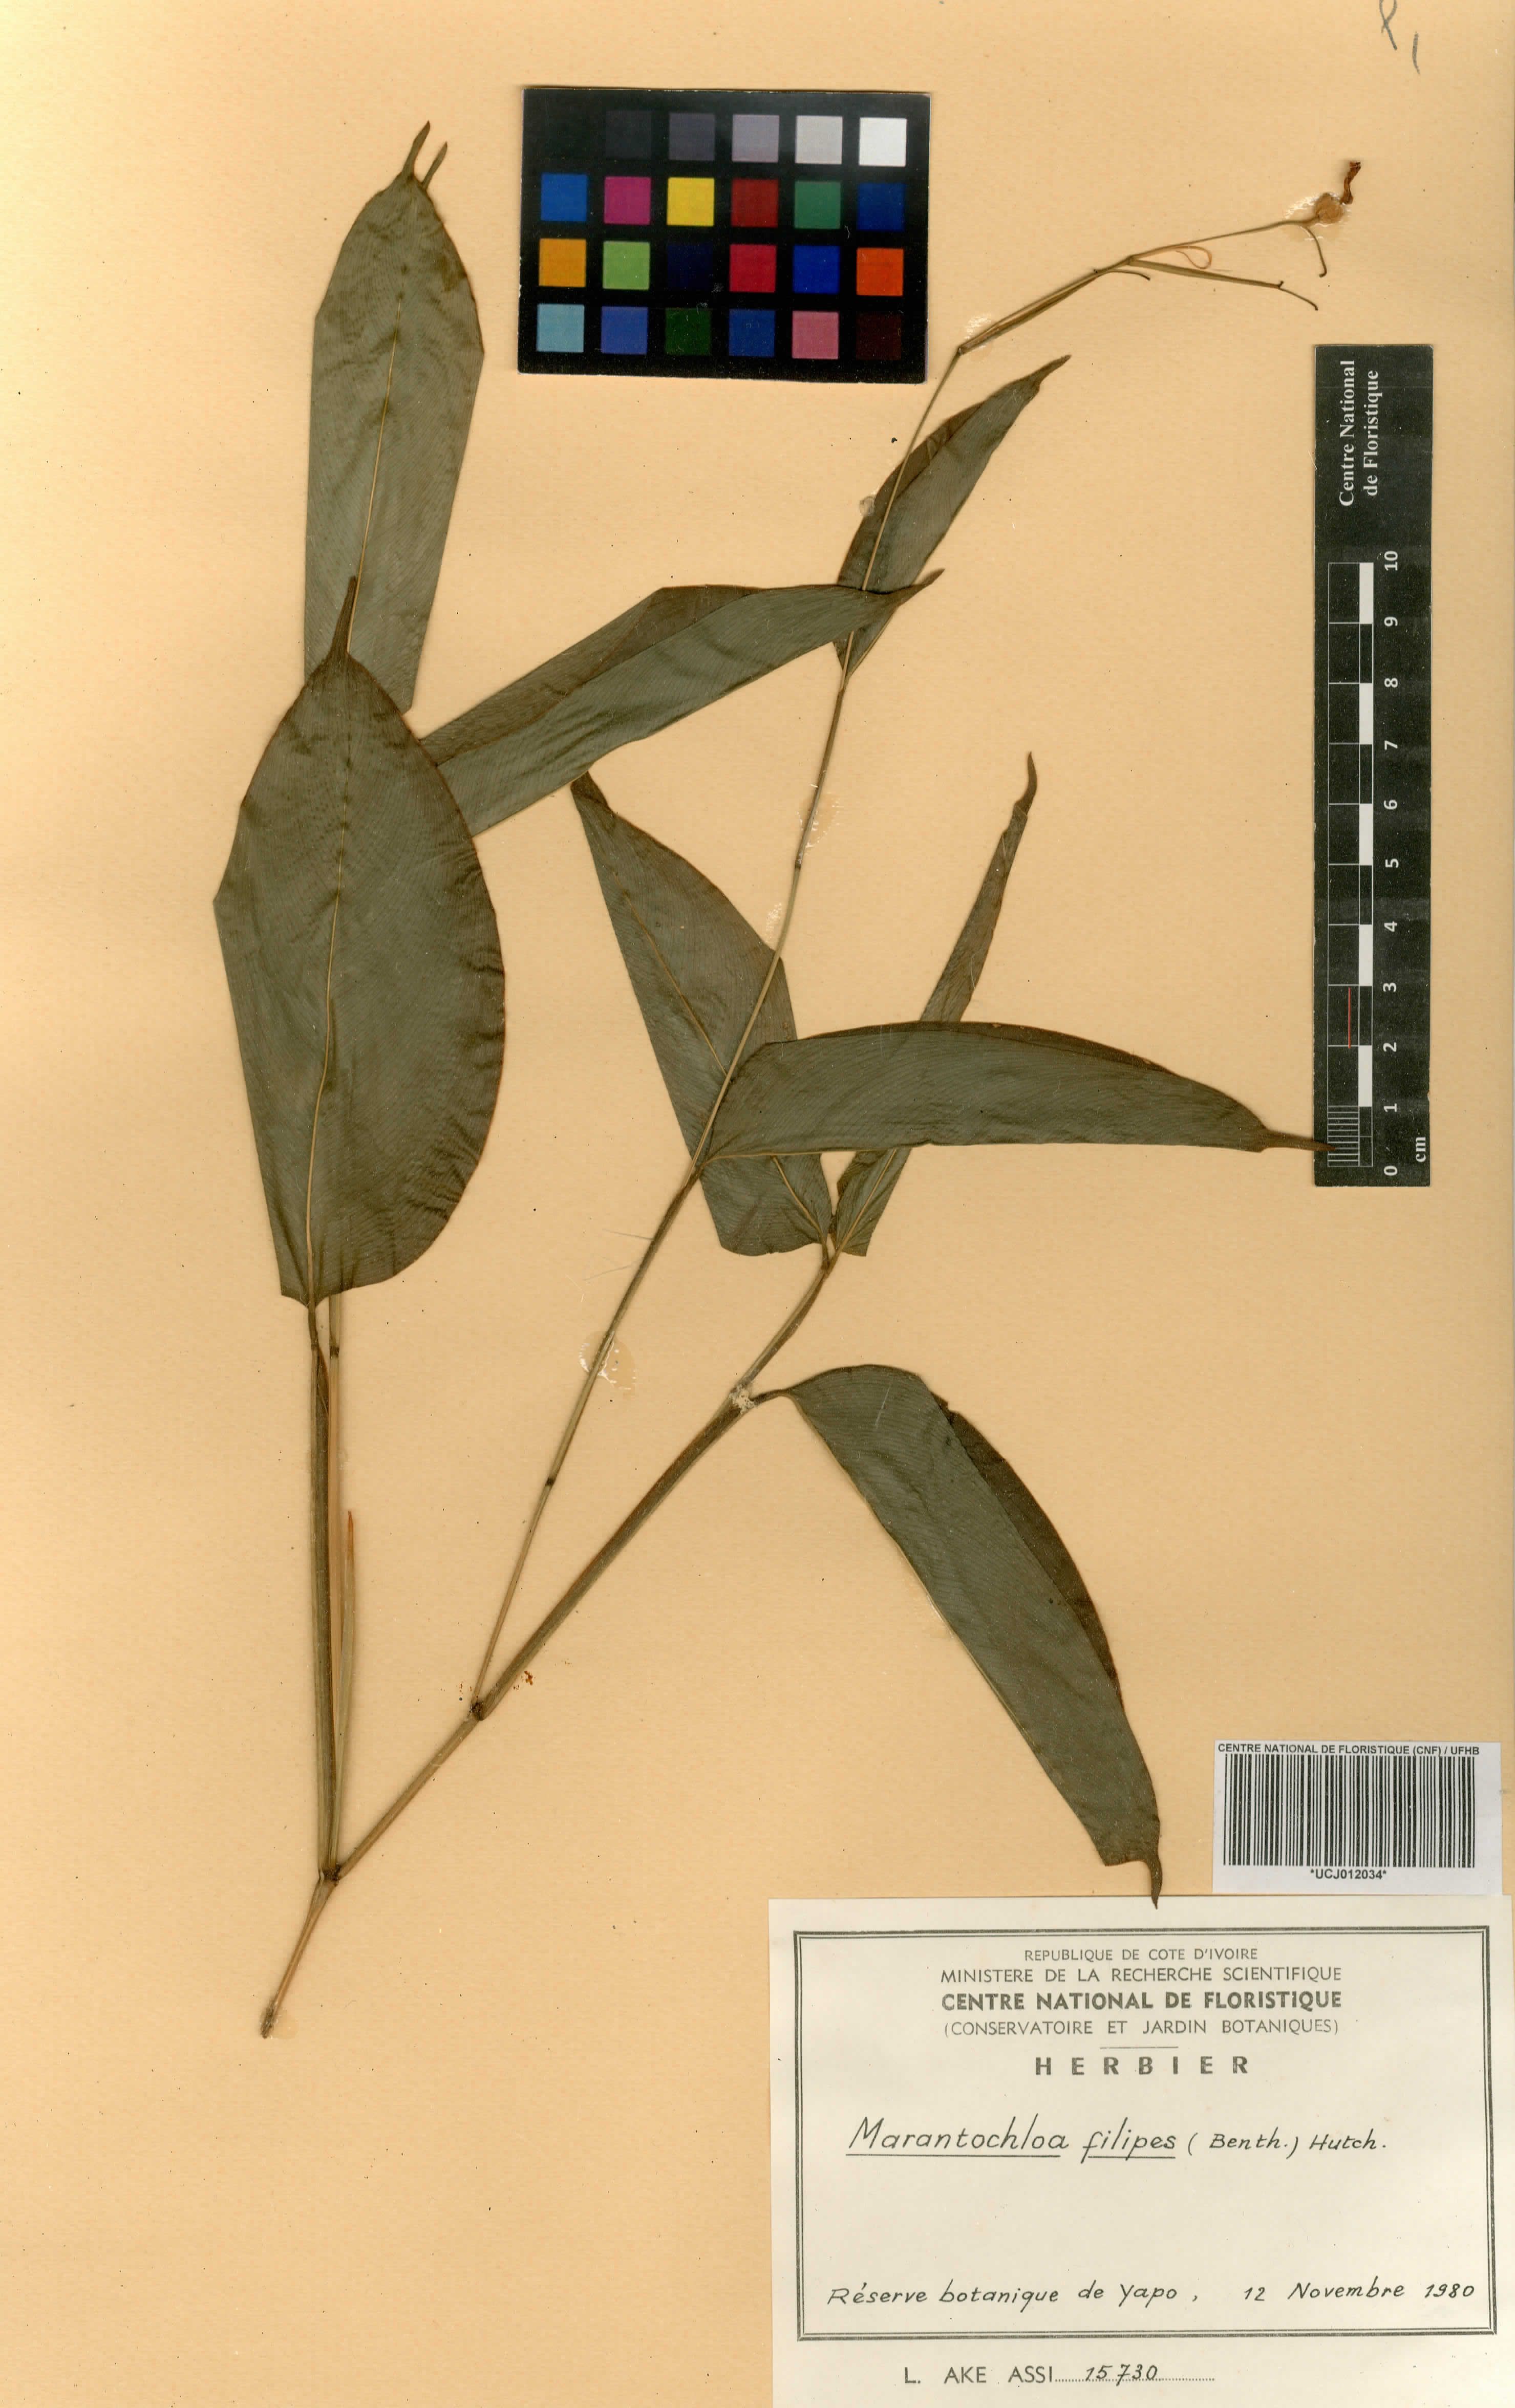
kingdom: Plantae
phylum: Tracheophyta
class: Liliopsida
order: Zingiberales
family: Marantaceae
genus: Marantochloa
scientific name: Marantochloa filipes
